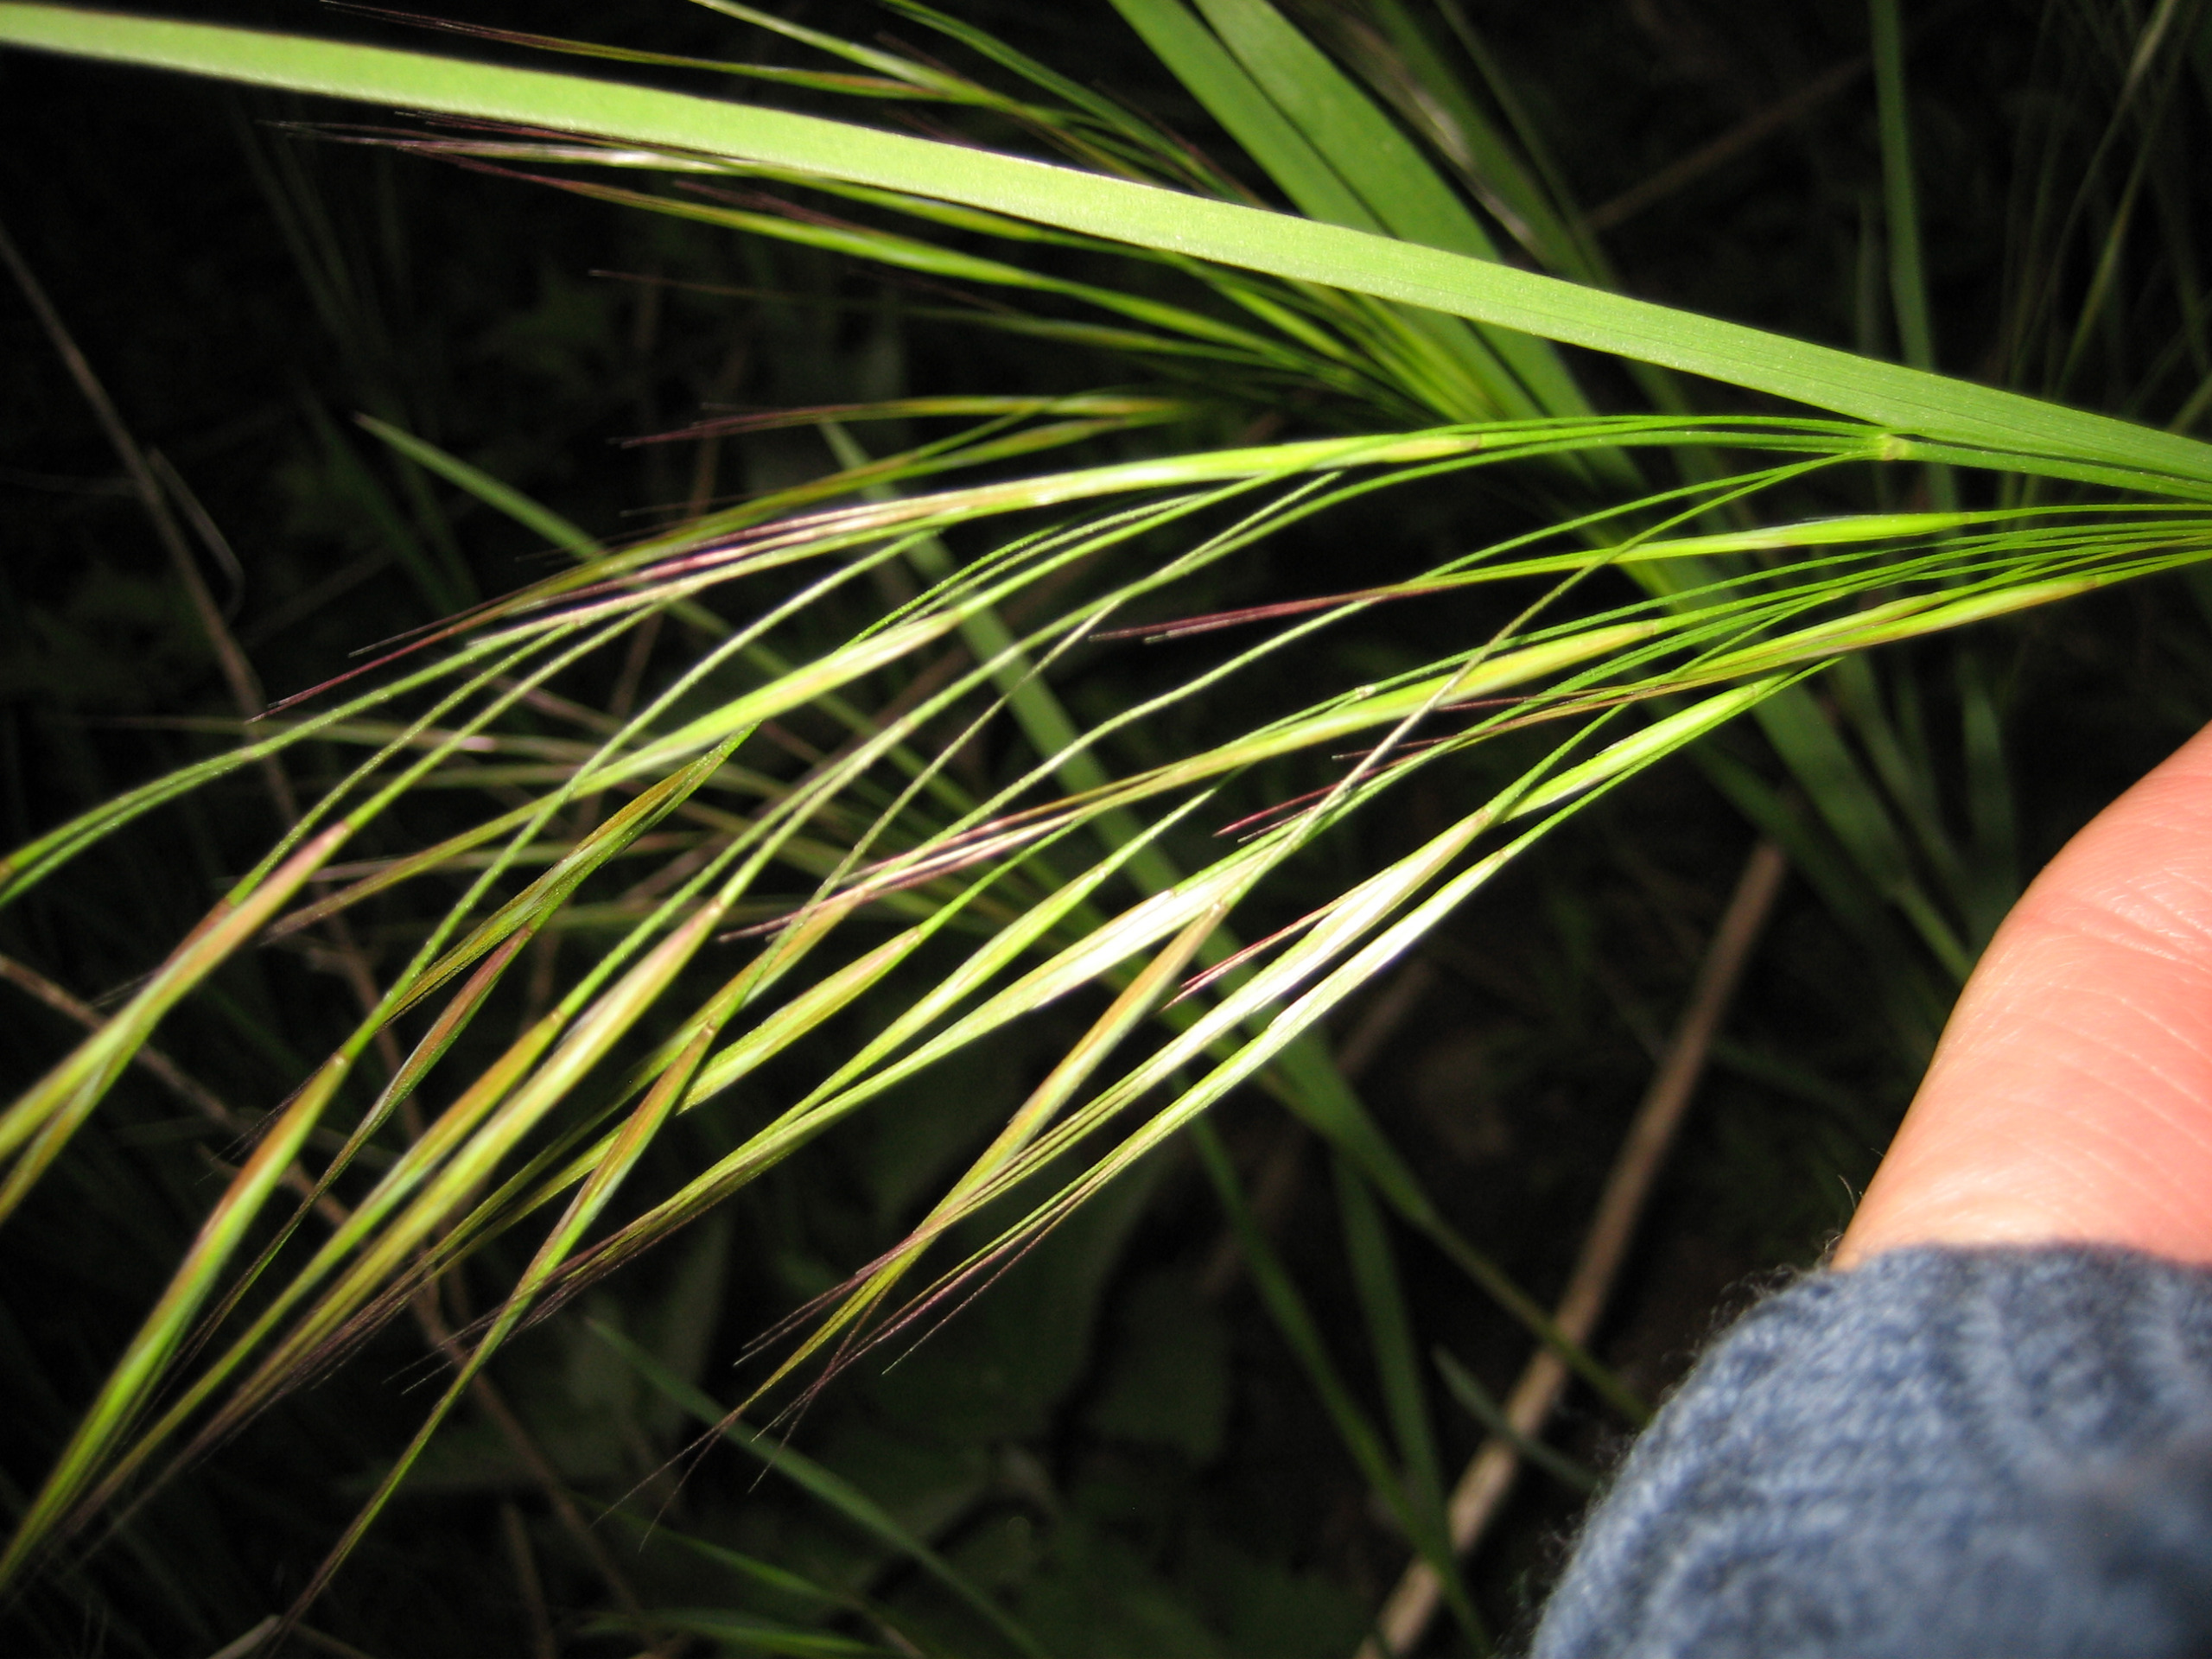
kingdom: Plantae
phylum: Tracheophyta
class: Liliopsida
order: Poales
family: Poaceae
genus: Bromus
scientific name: Bromus sterilis
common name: Gold hejre
